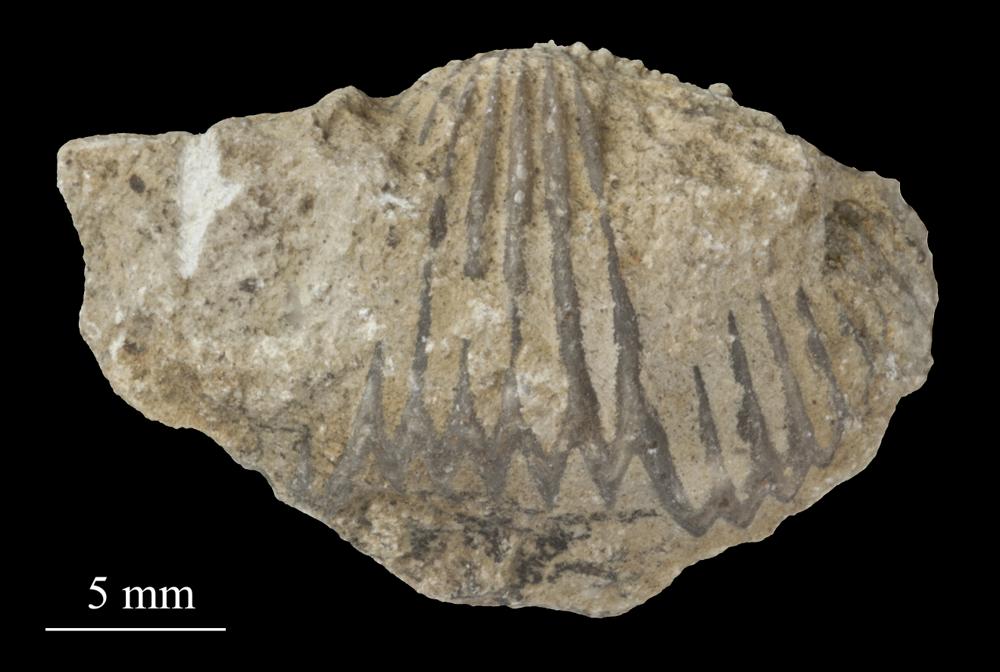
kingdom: Animalia
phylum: Brachiopoda
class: Rhynchonellata
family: Plectorthidae
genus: Platystrophia
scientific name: Platystrophia Terebratulites biforatus
